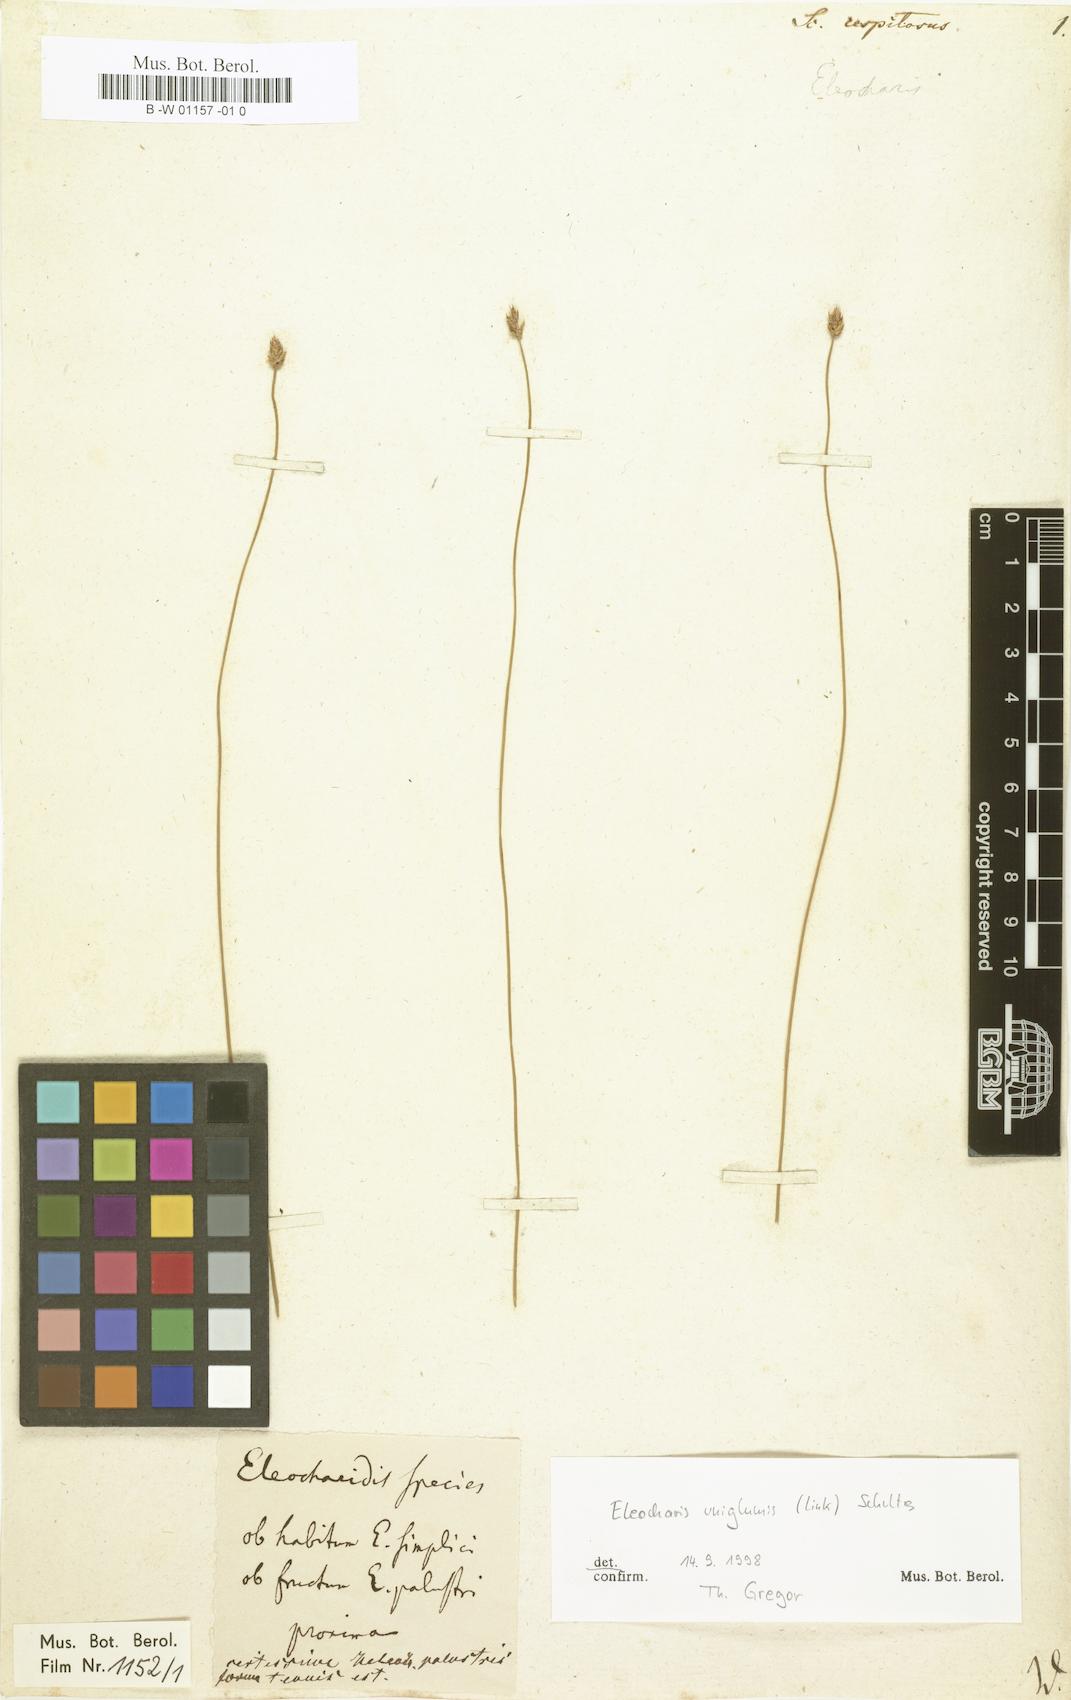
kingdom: Plantae
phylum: Tracheophyta
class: Liliopsida
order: Poales
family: Cyperaceae
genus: Scirpus
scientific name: Scirpus cespitosus
